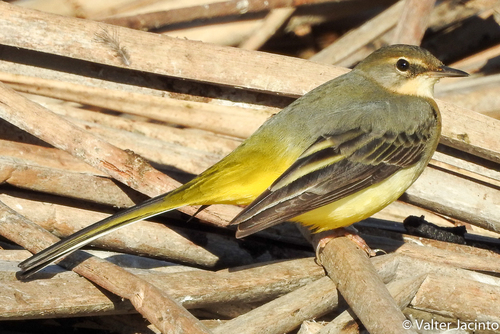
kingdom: Animalia
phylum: Chordata
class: Aves
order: Passeriformes
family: Motacillidae
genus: Motacilla
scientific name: Motacilla cinerea
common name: Grey wagtail
